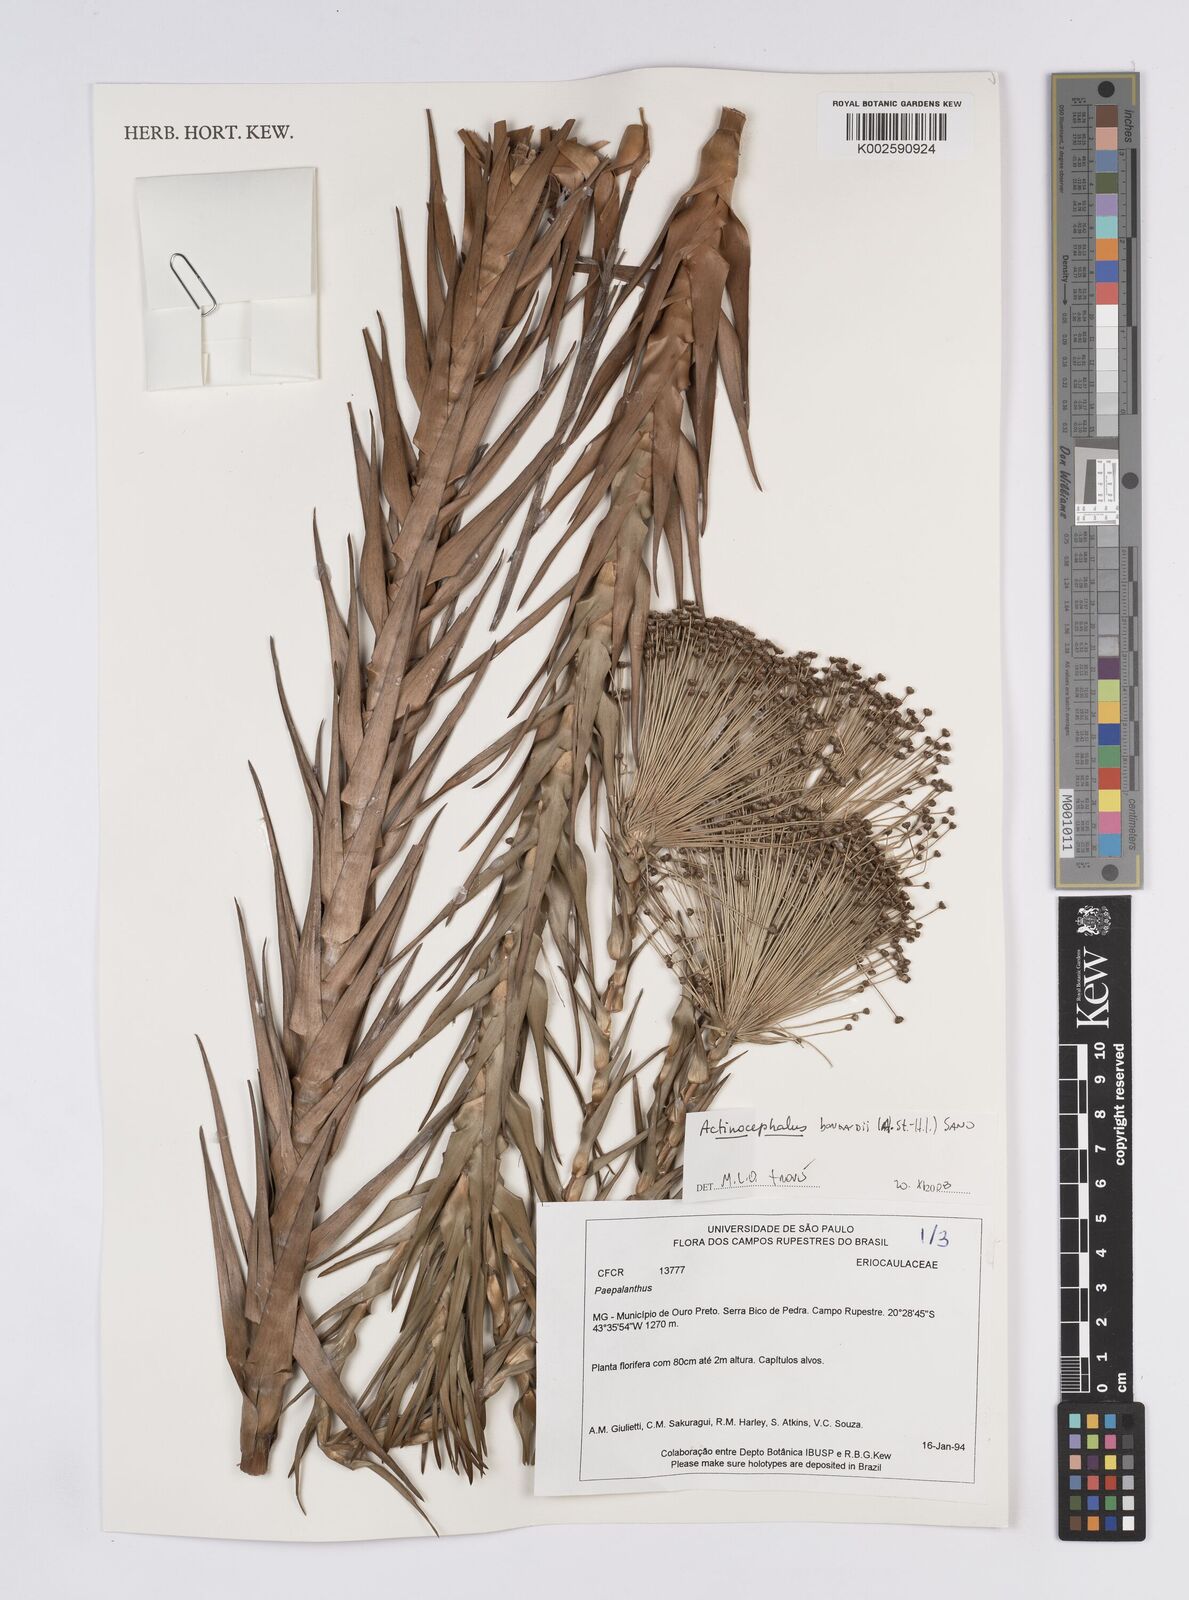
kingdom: Plantae
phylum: Tracheophyta
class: Liliopsida
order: Poales
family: Eriocaulaceae
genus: Paepalanthus
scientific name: Paepalanthus hilairei
